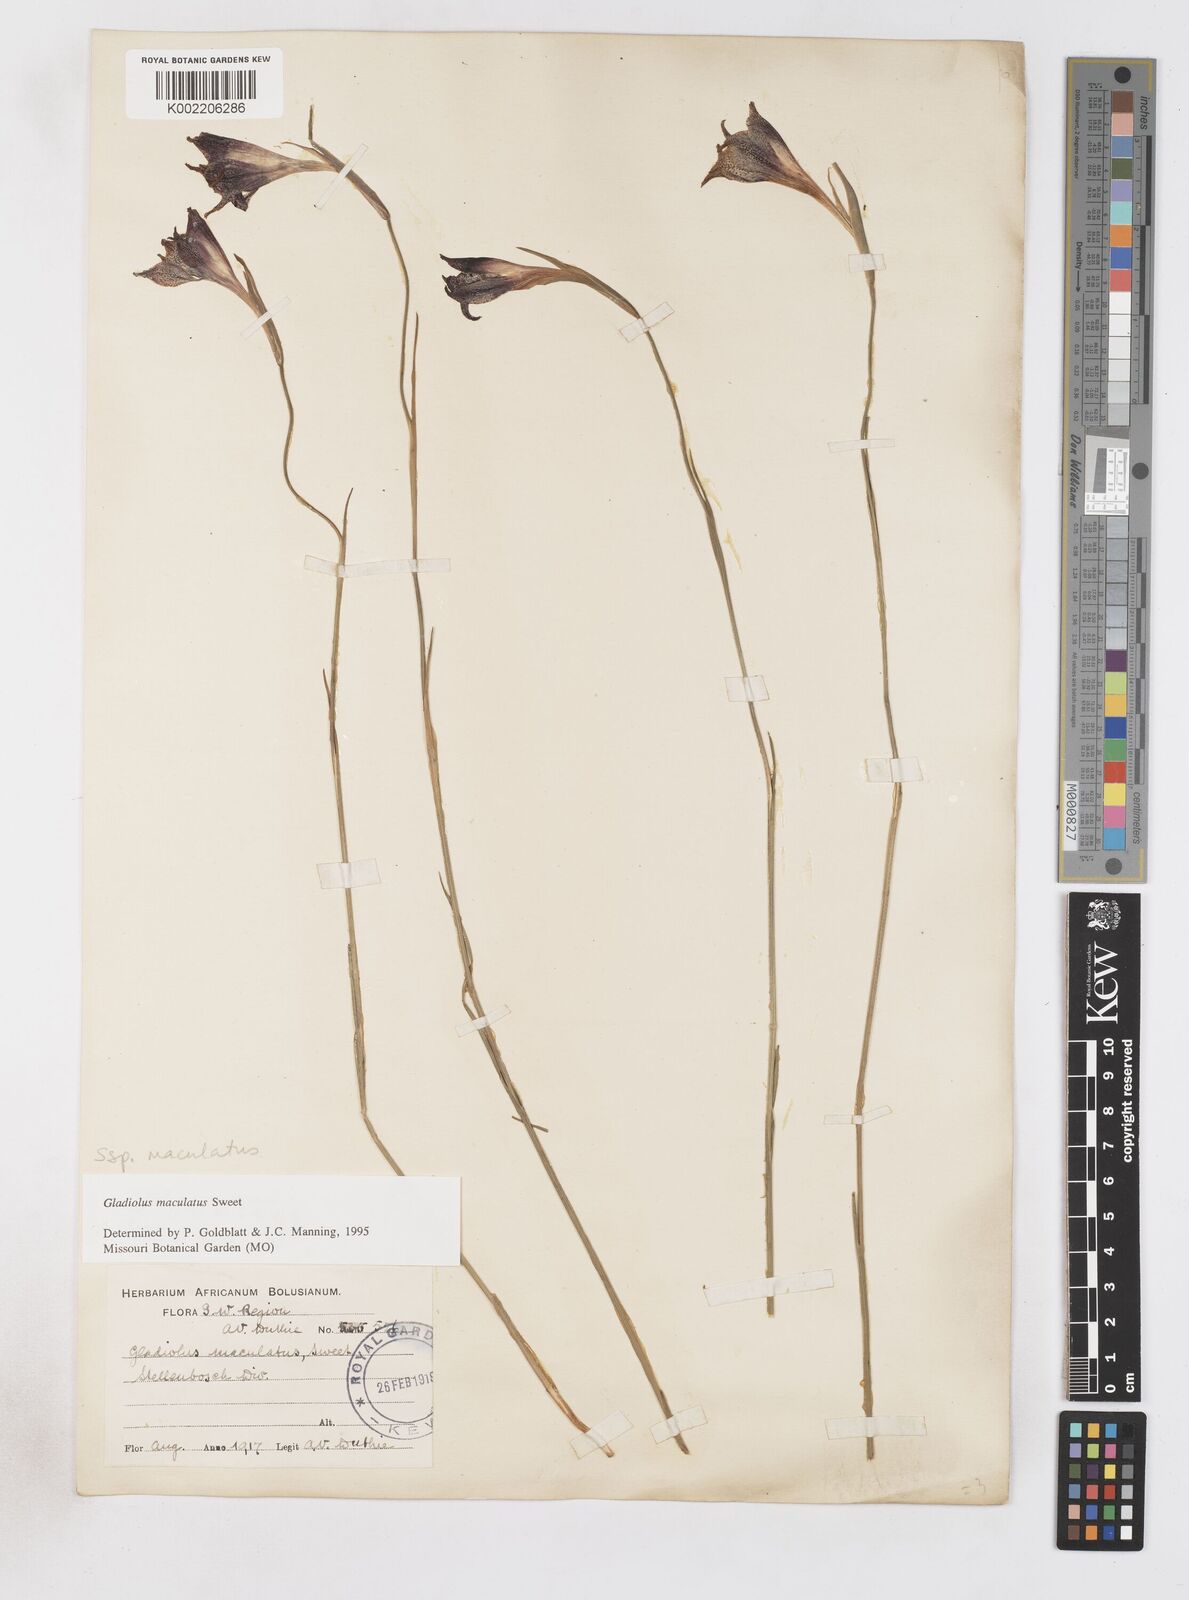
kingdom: Plantae
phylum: Tracheophyta
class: Liliopsida
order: Asparagales
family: Iridaceae
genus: Gladiolus
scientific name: Gladiolus maculatus
